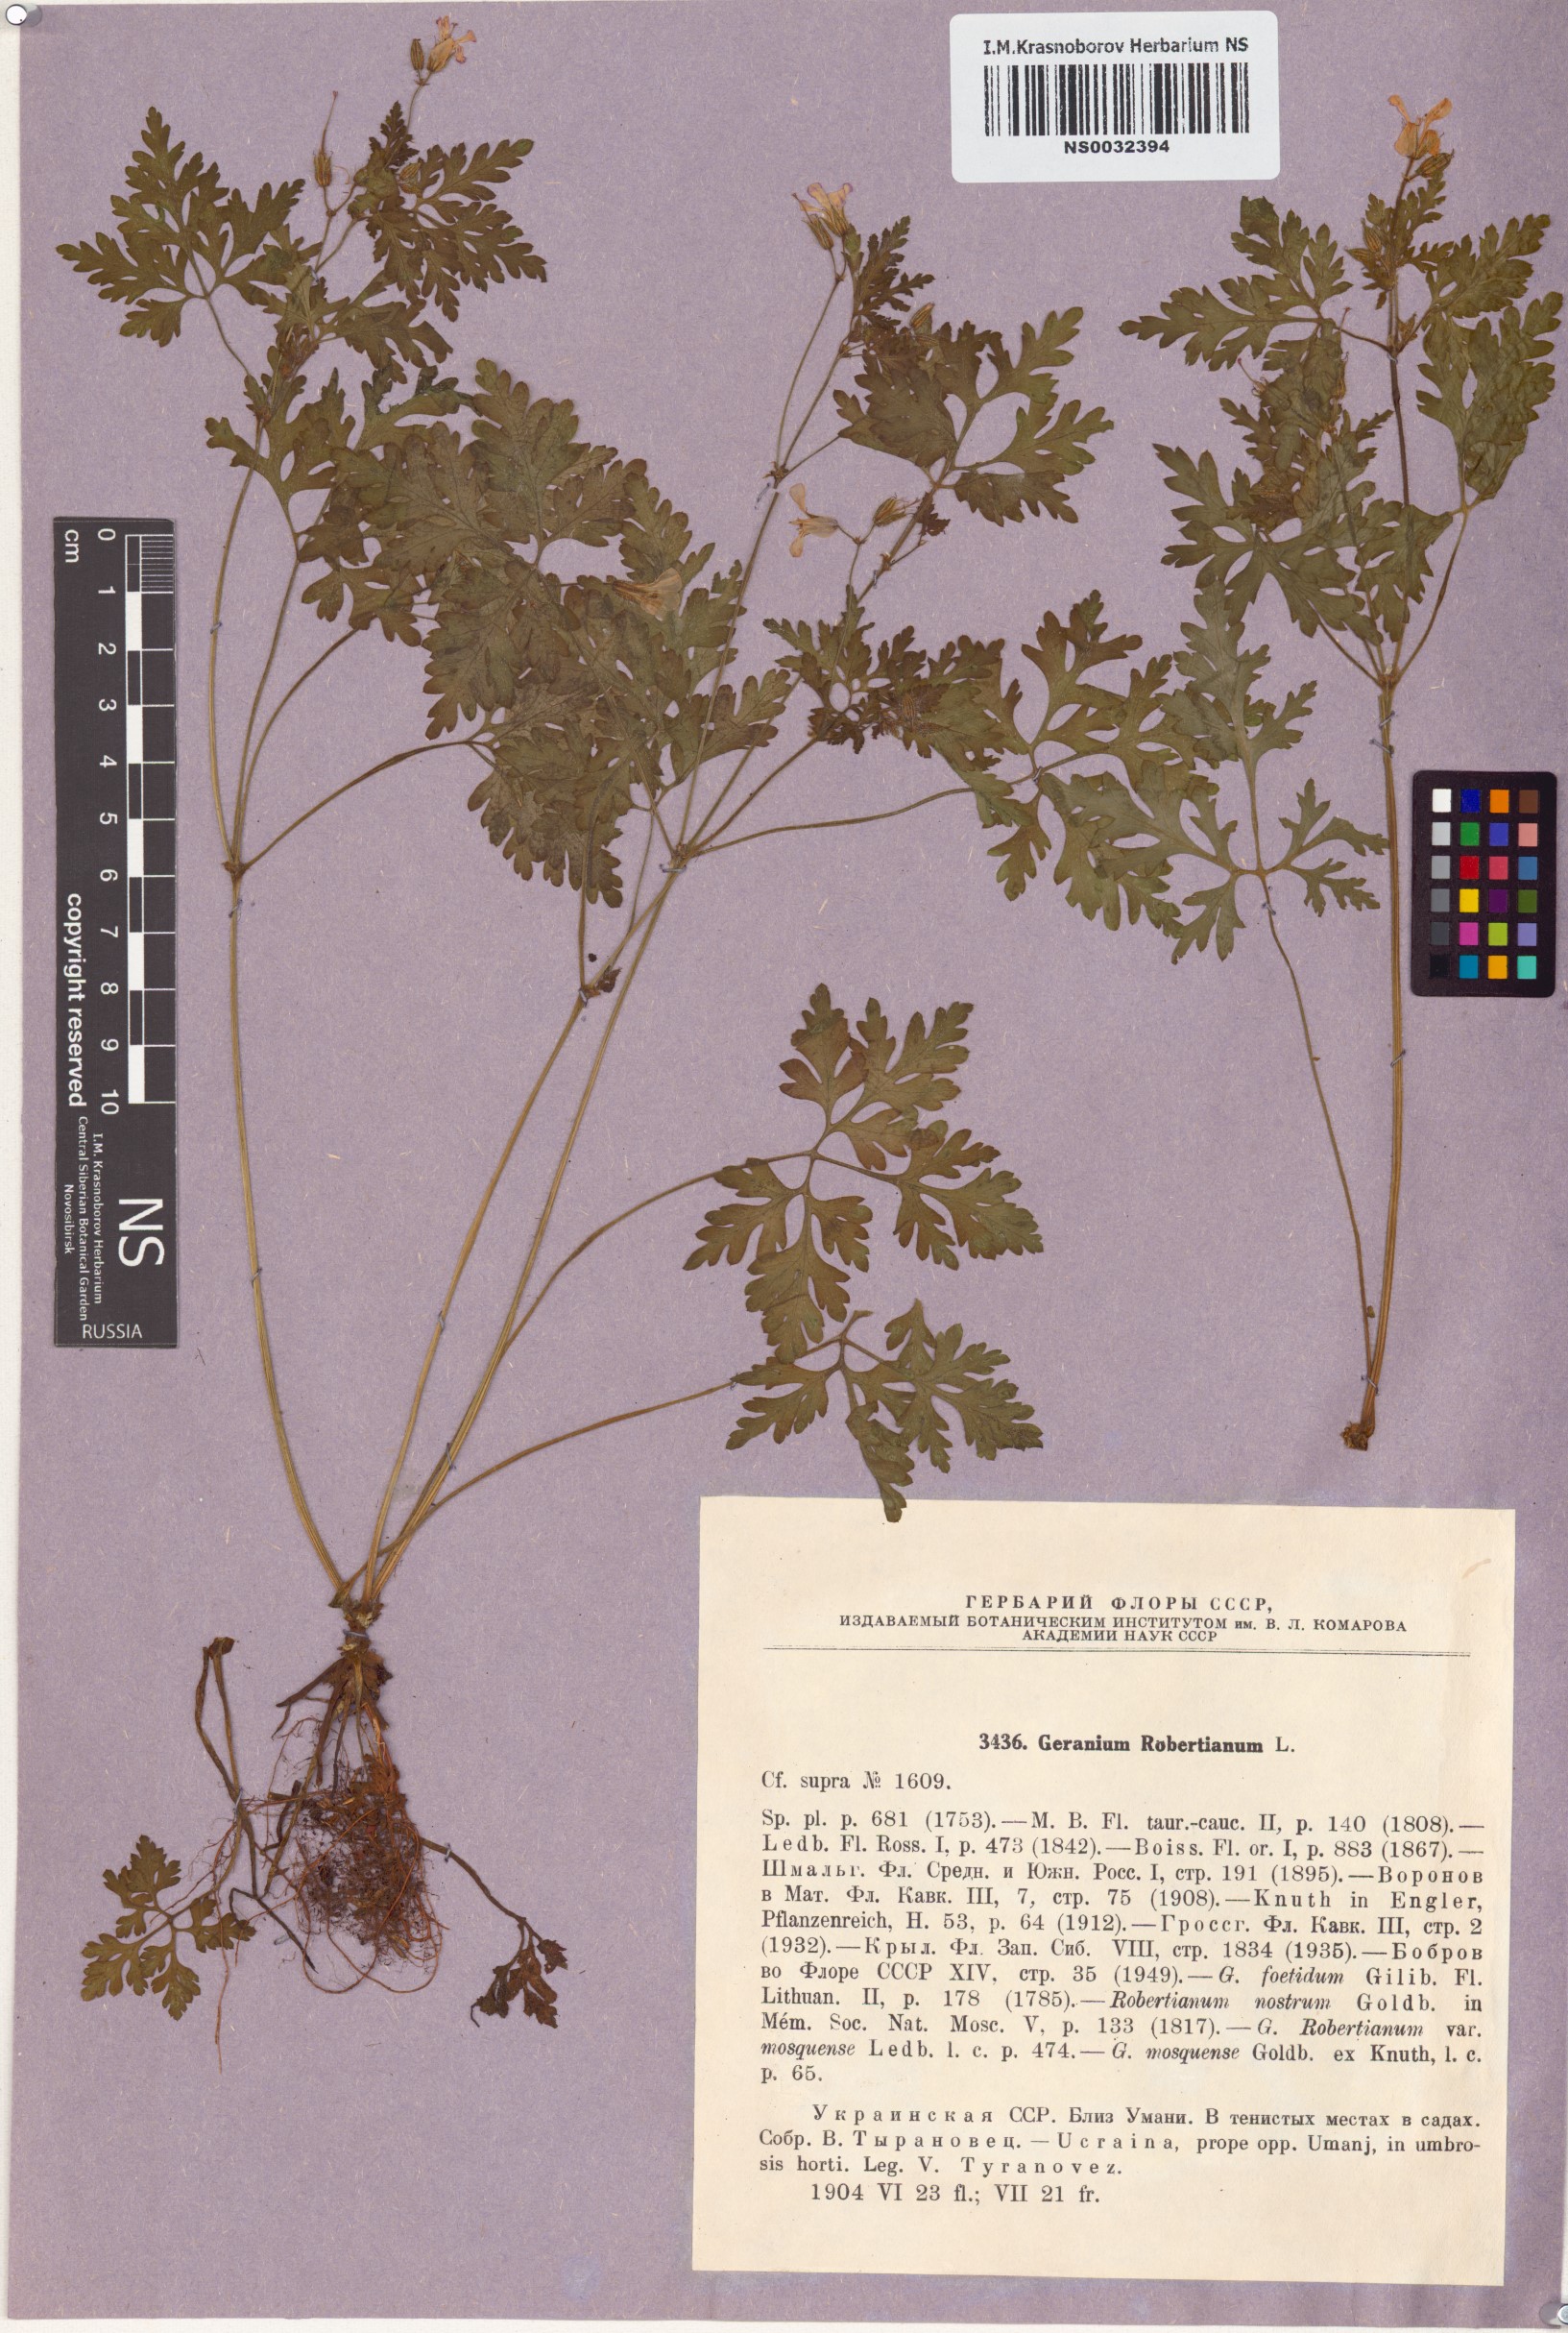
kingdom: Plantae
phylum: Tracheophyta
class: Magnoliopsida
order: Geraniales
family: Geraniaceae
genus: Geranium
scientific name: Geranium robertianum
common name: Herb-robert
